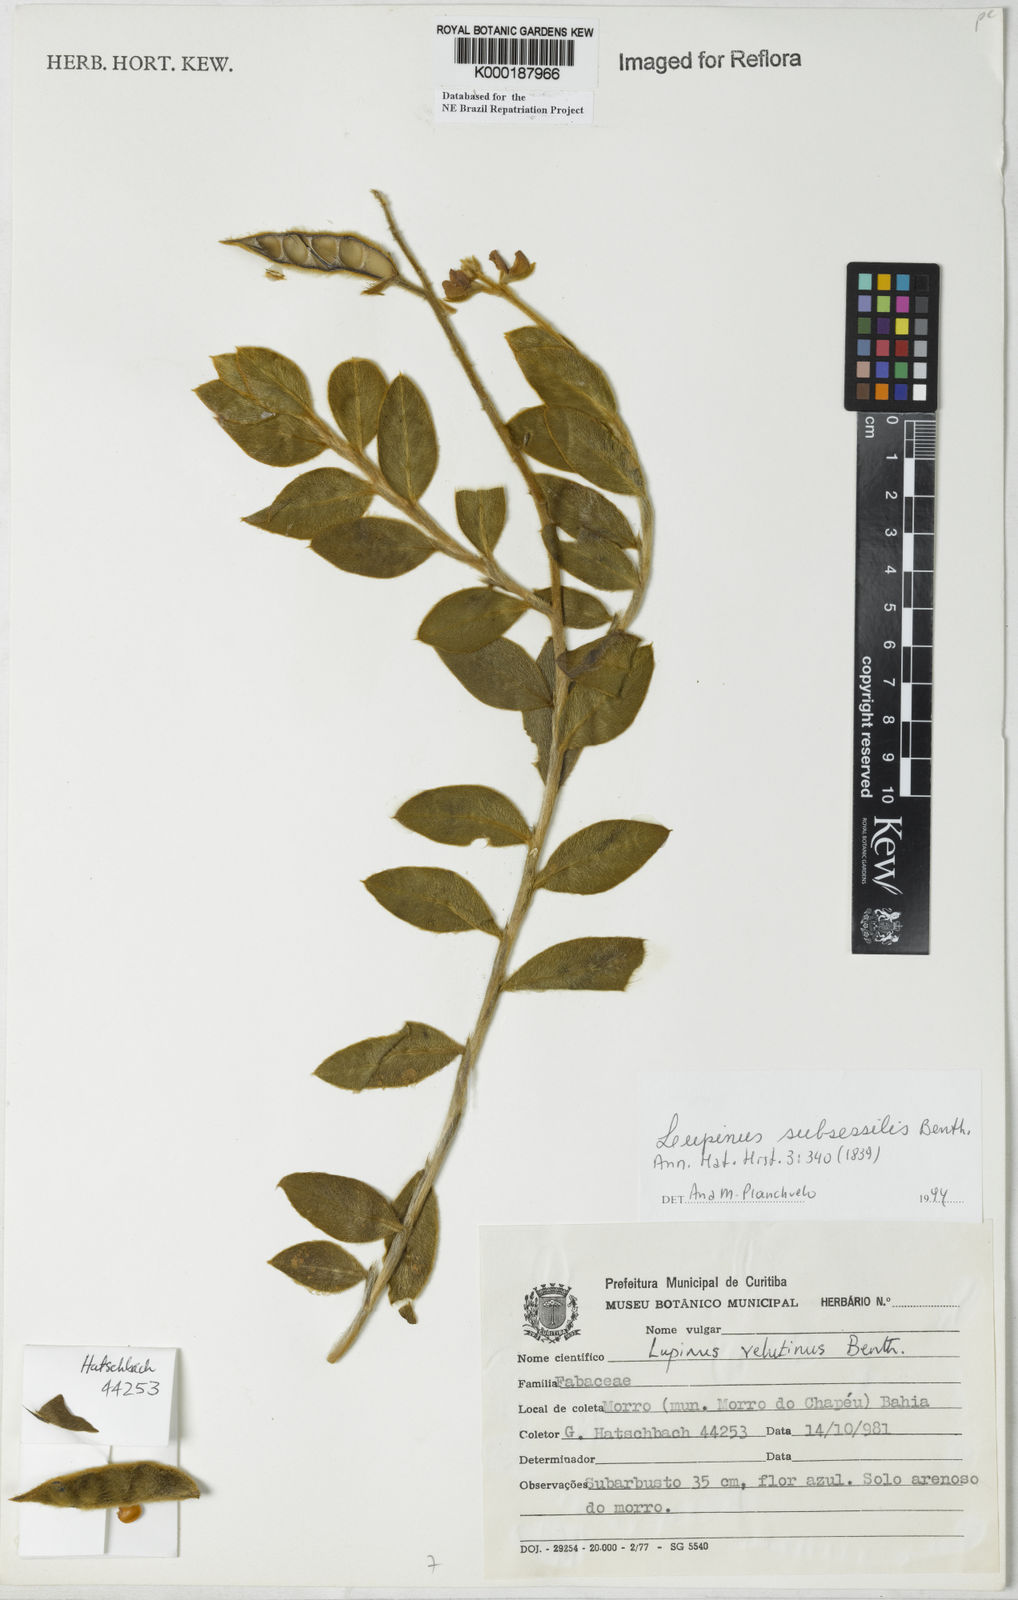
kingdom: Plantae
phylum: Tracheophyta
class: Magnoliopsida
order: Fabales
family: Fabaceae
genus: Lupinus
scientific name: Lupinus subsessilis
